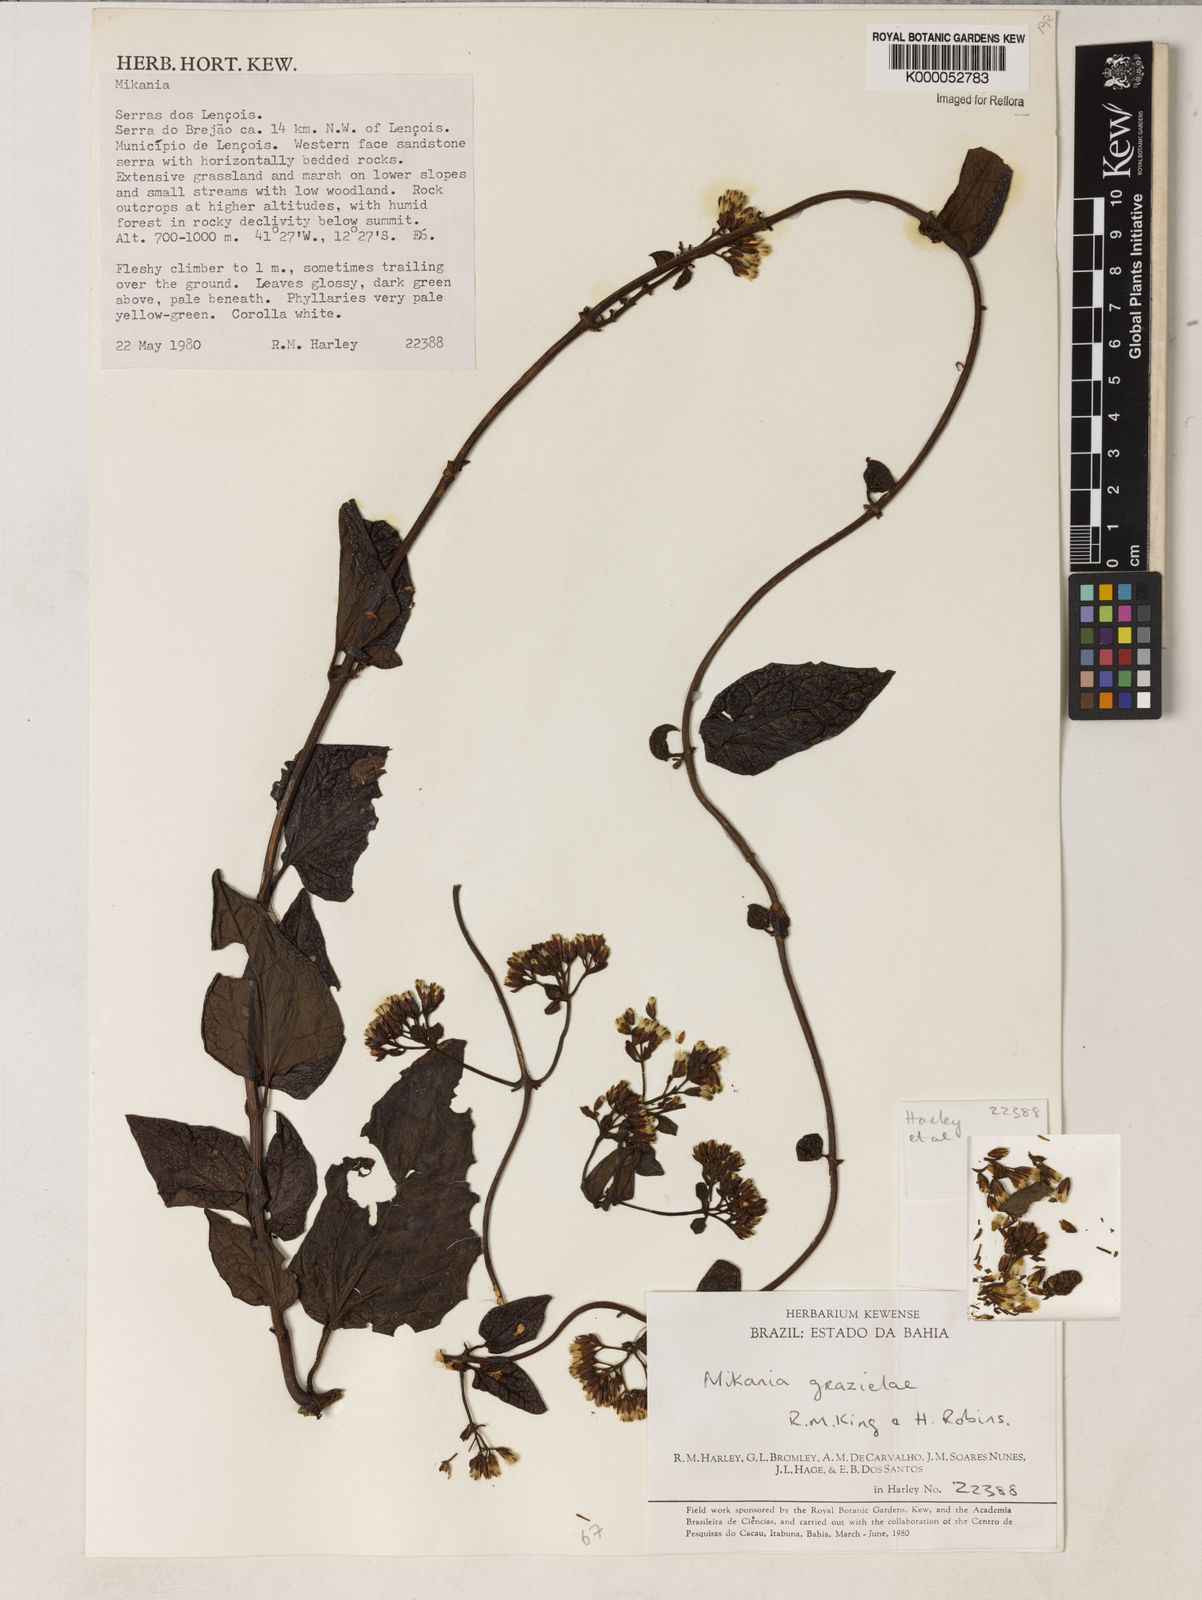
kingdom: Plantae
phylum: Tracheophyta
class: Magnoliopsida
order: Asterales
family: Asteraceae
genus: Mikania
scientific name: Mikania grazielae
